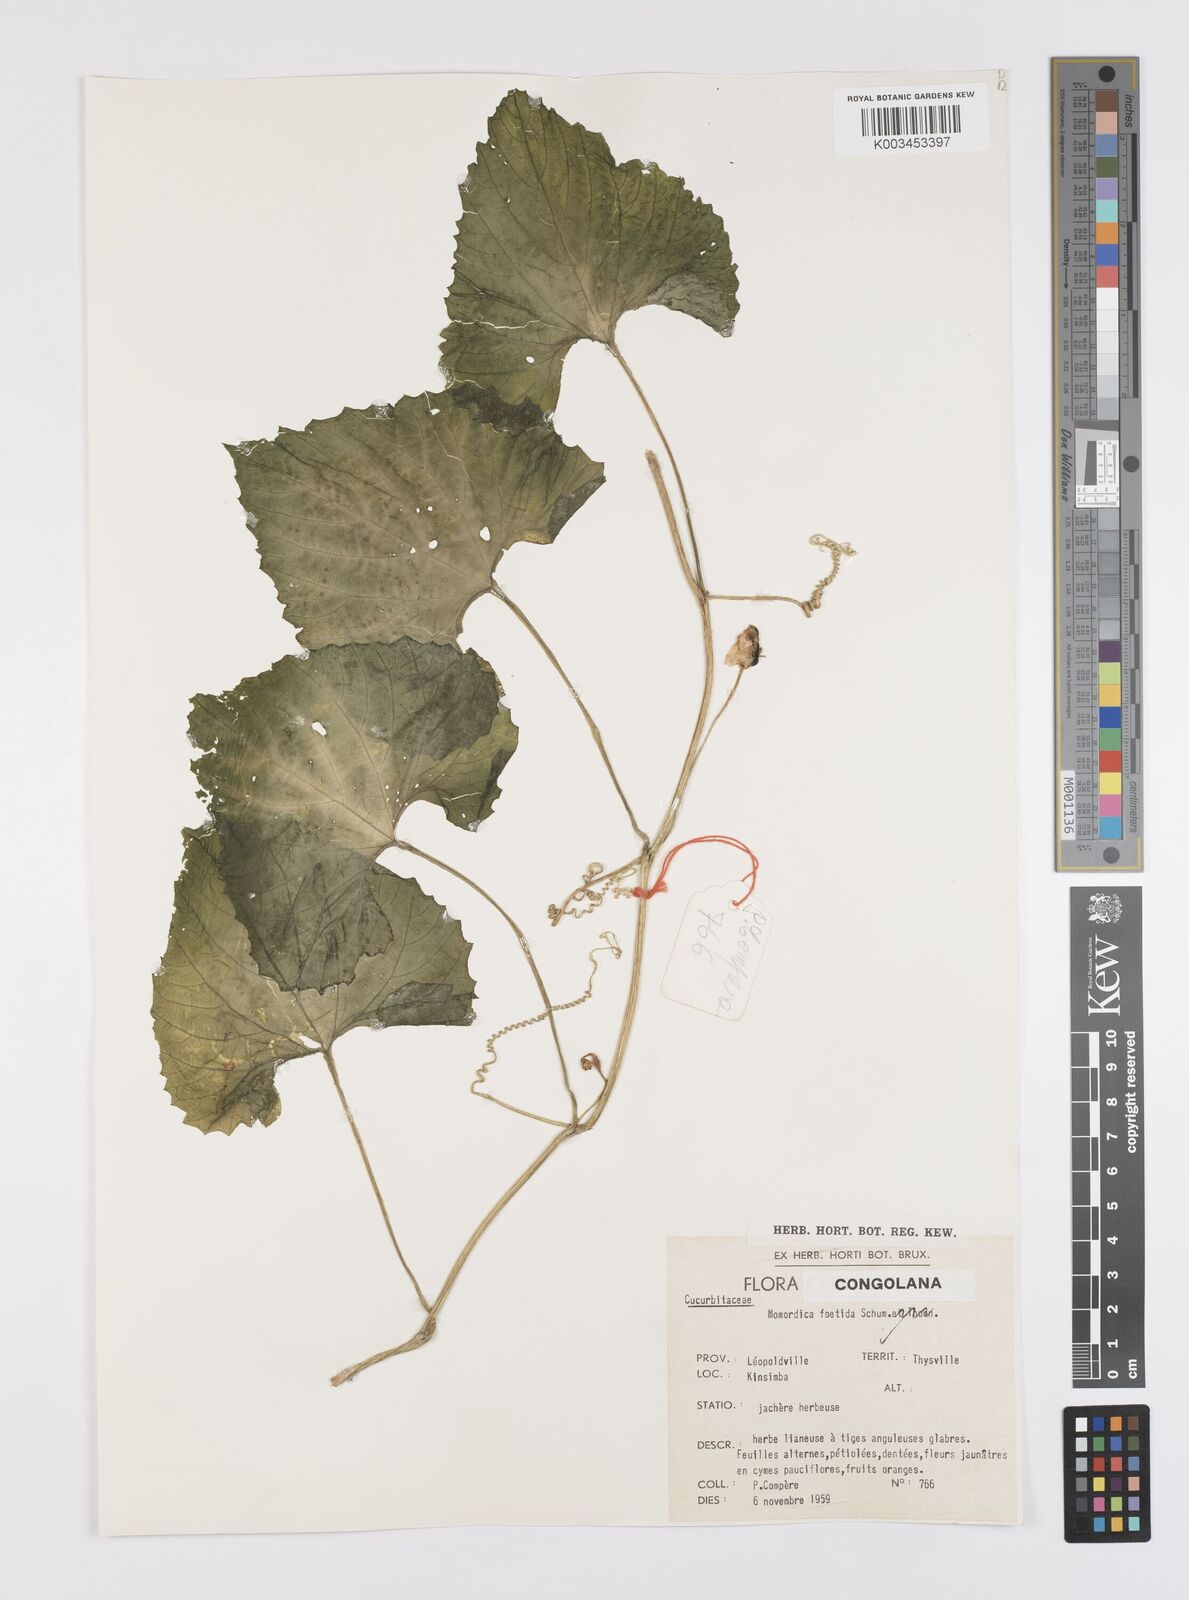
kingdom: Plantae
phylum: Tracheophyta
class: Magnoliopsida
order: Cucurbitales
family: Cucurbitaceae
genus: Momordica
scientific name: Momordica foetida
